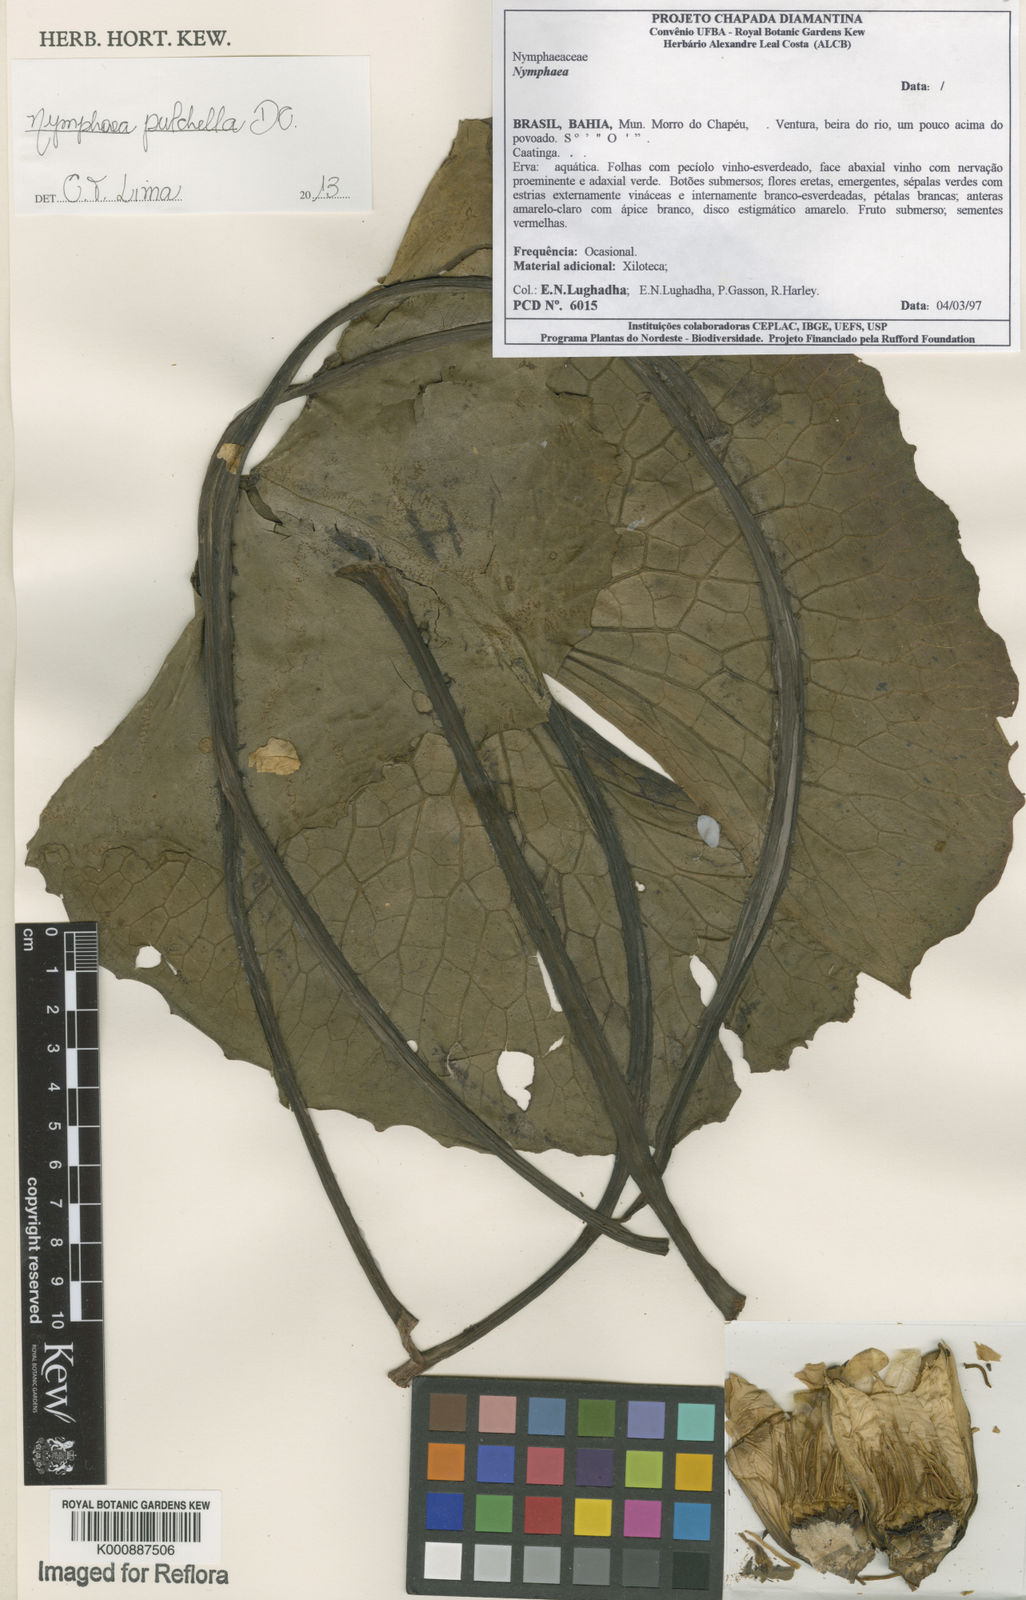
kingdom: Plantae
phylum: Tracheophyta
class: Magnoliopsida
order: Nymphaeales
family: Nymphaeaceae
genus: Nymphaea
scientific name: Nymphaea pulchella
